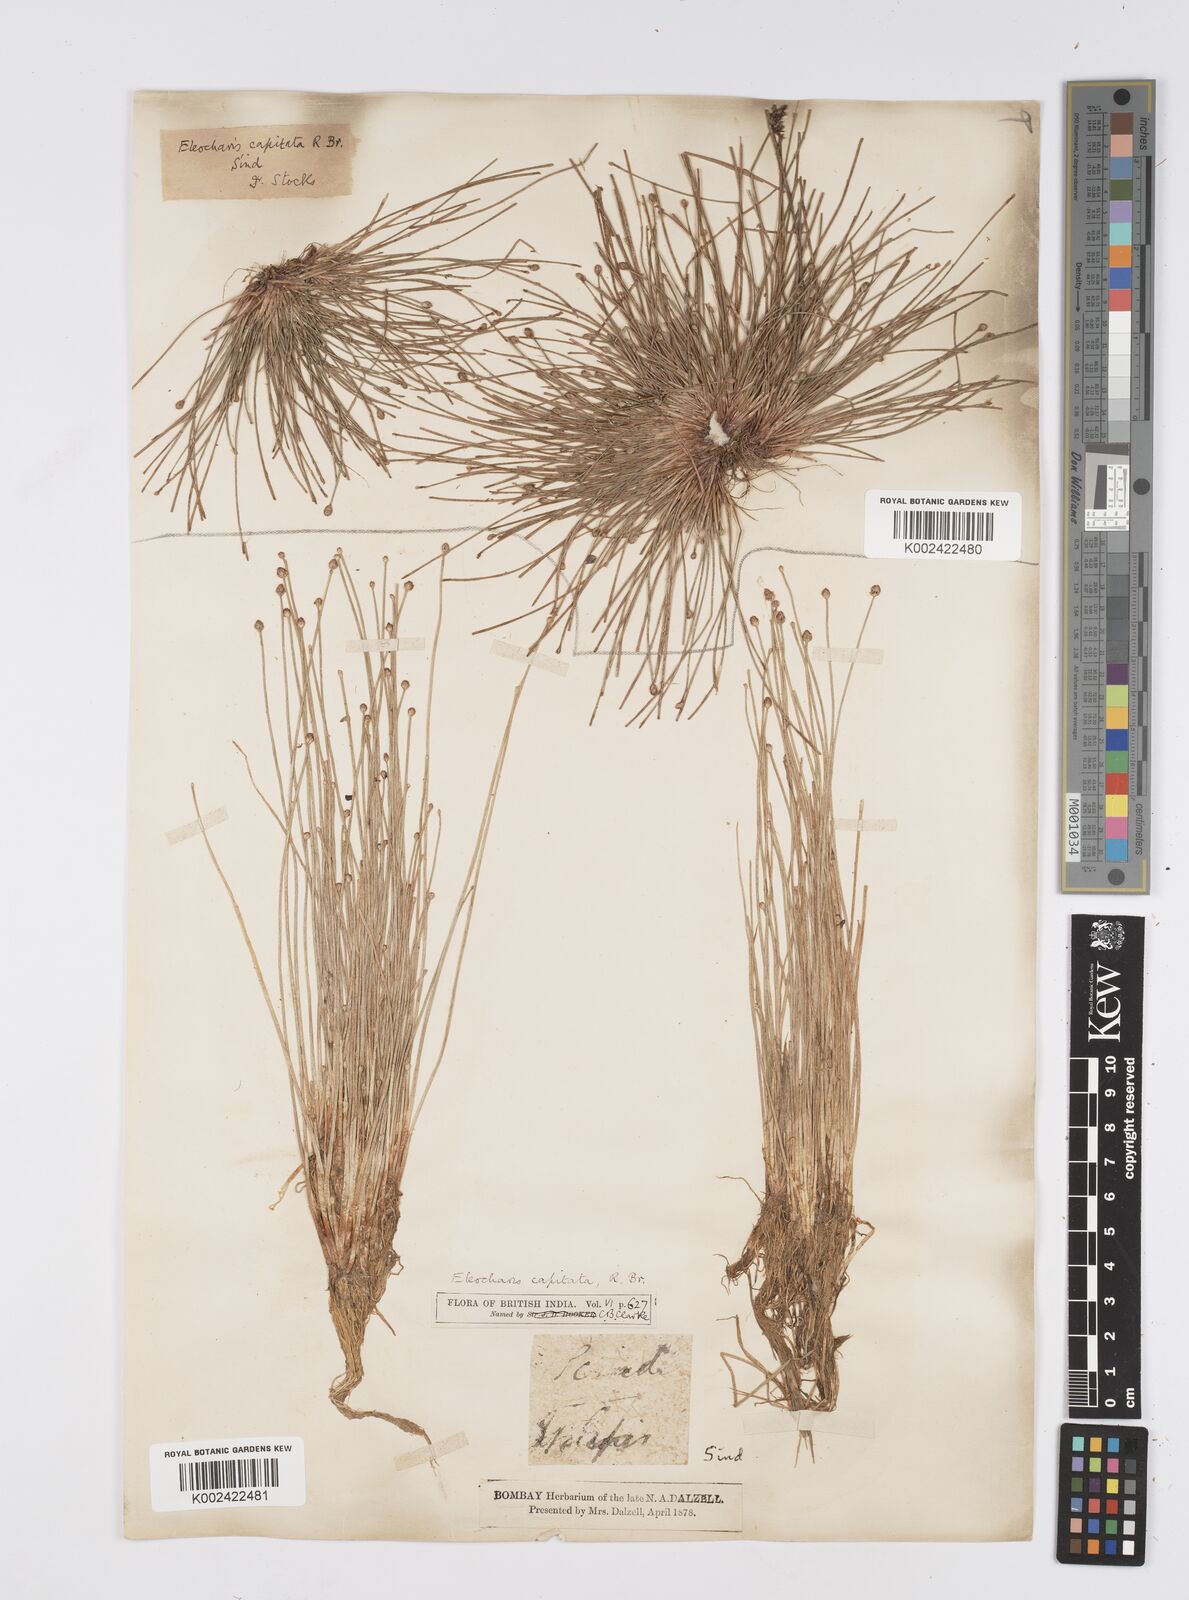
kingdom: Plantae
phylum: Tracheophyta
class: Liliopsida
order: Poales
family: Cyperaceae
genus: Eleocharis
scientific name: Eleocharis geniculata
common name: Canada spikesedge
